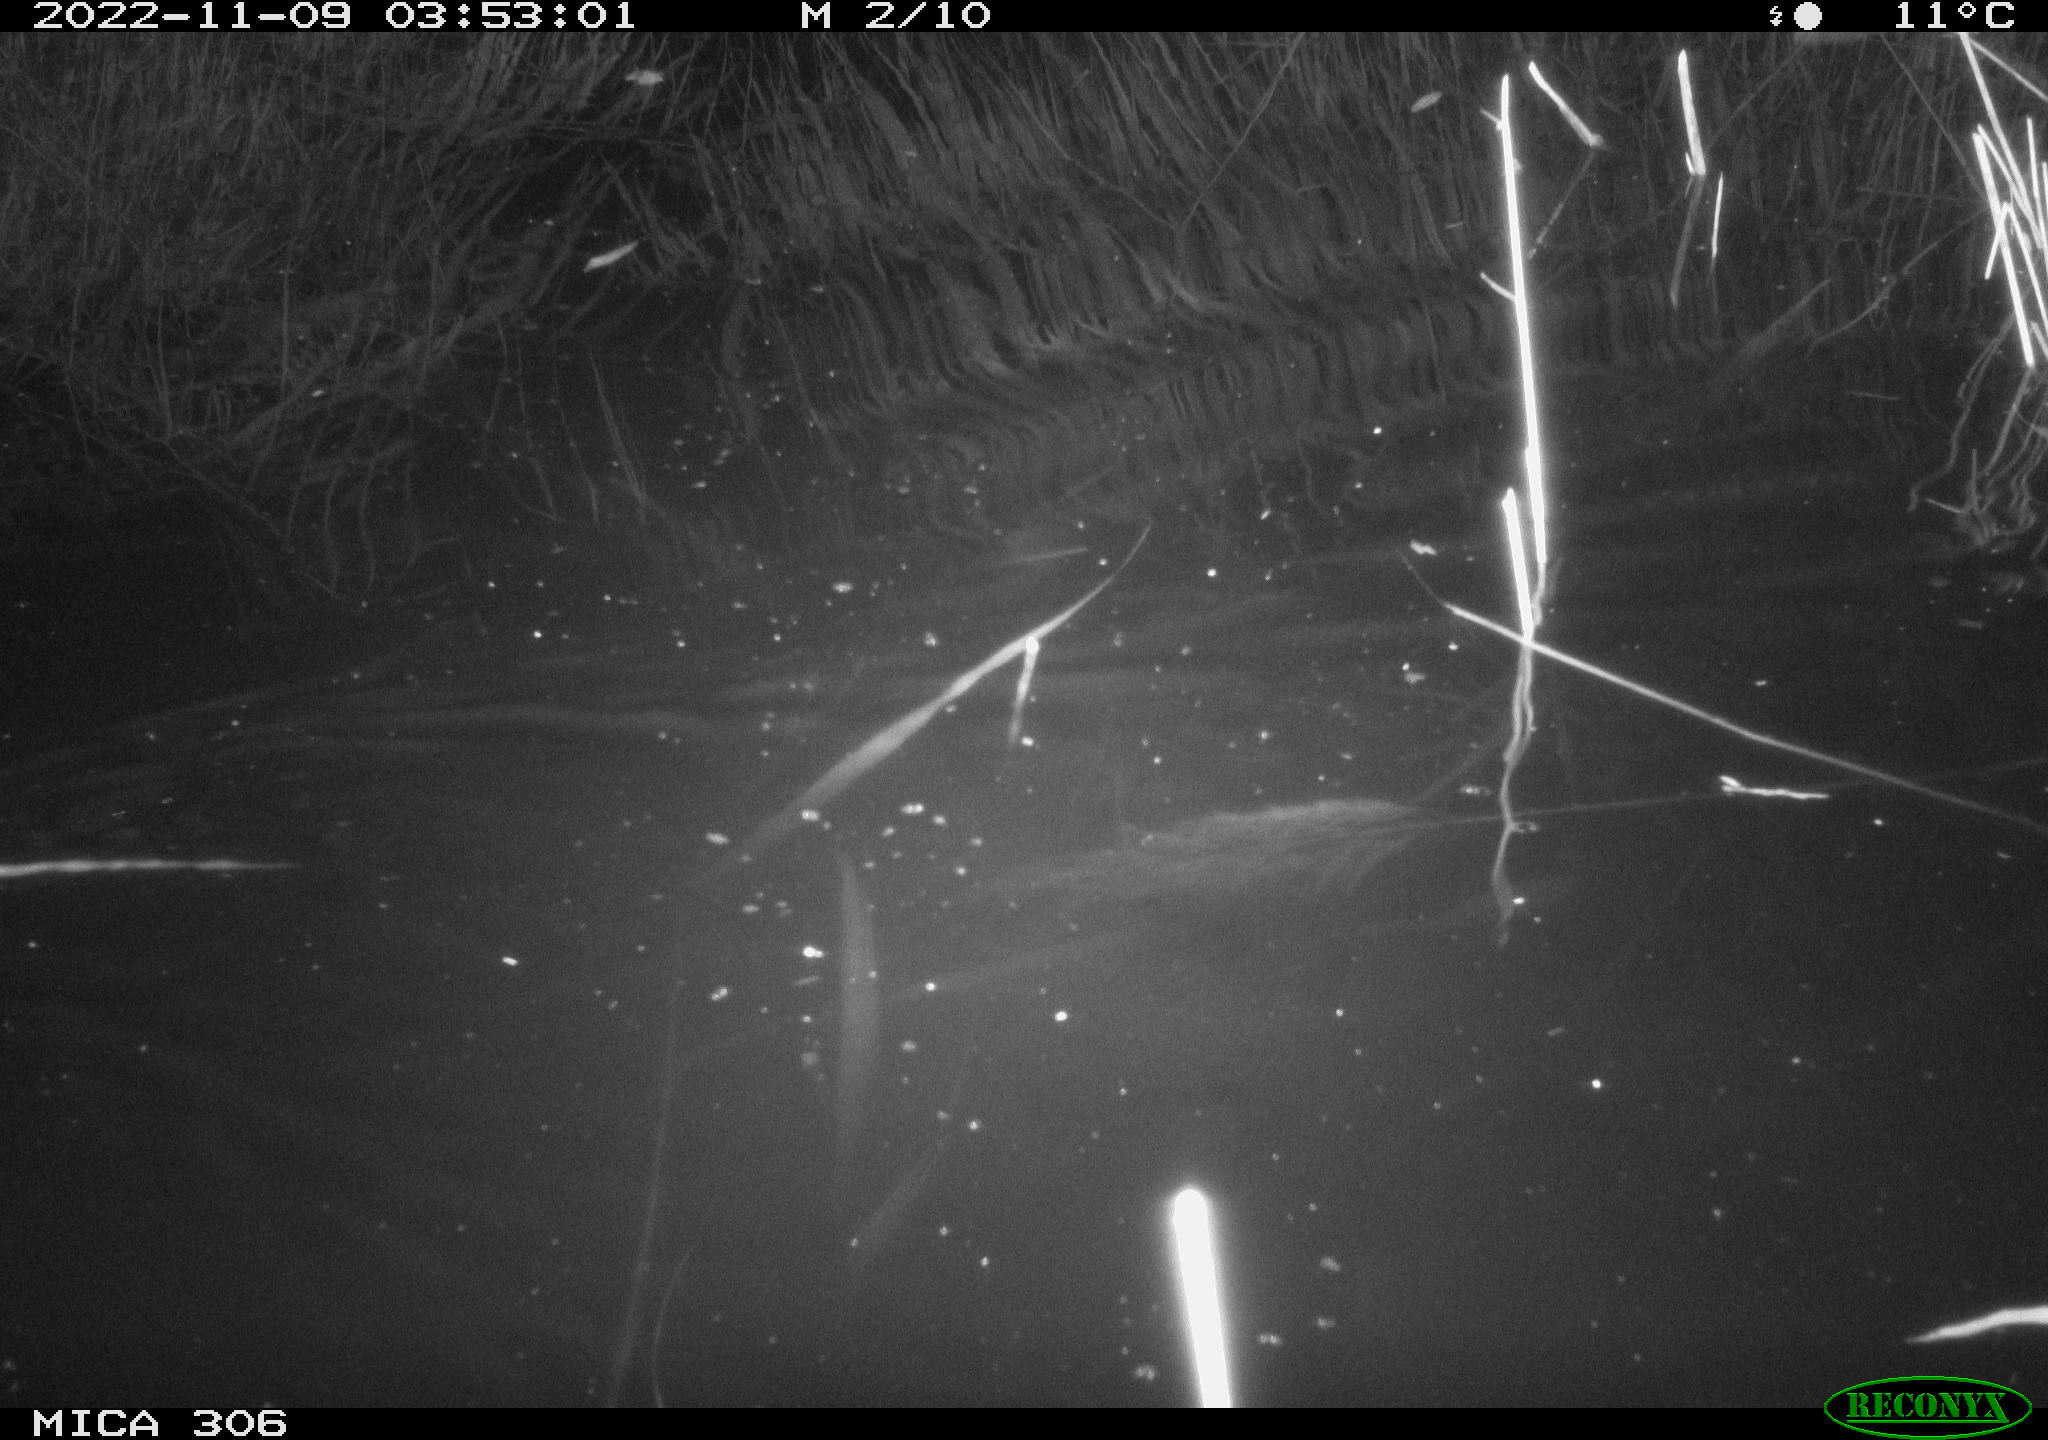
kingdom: Animalia
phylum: Chordata
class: Mammalia
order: Rodentia
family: Muridae
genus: Rattus
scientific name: Rattus norvegicus
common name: Brown rat
